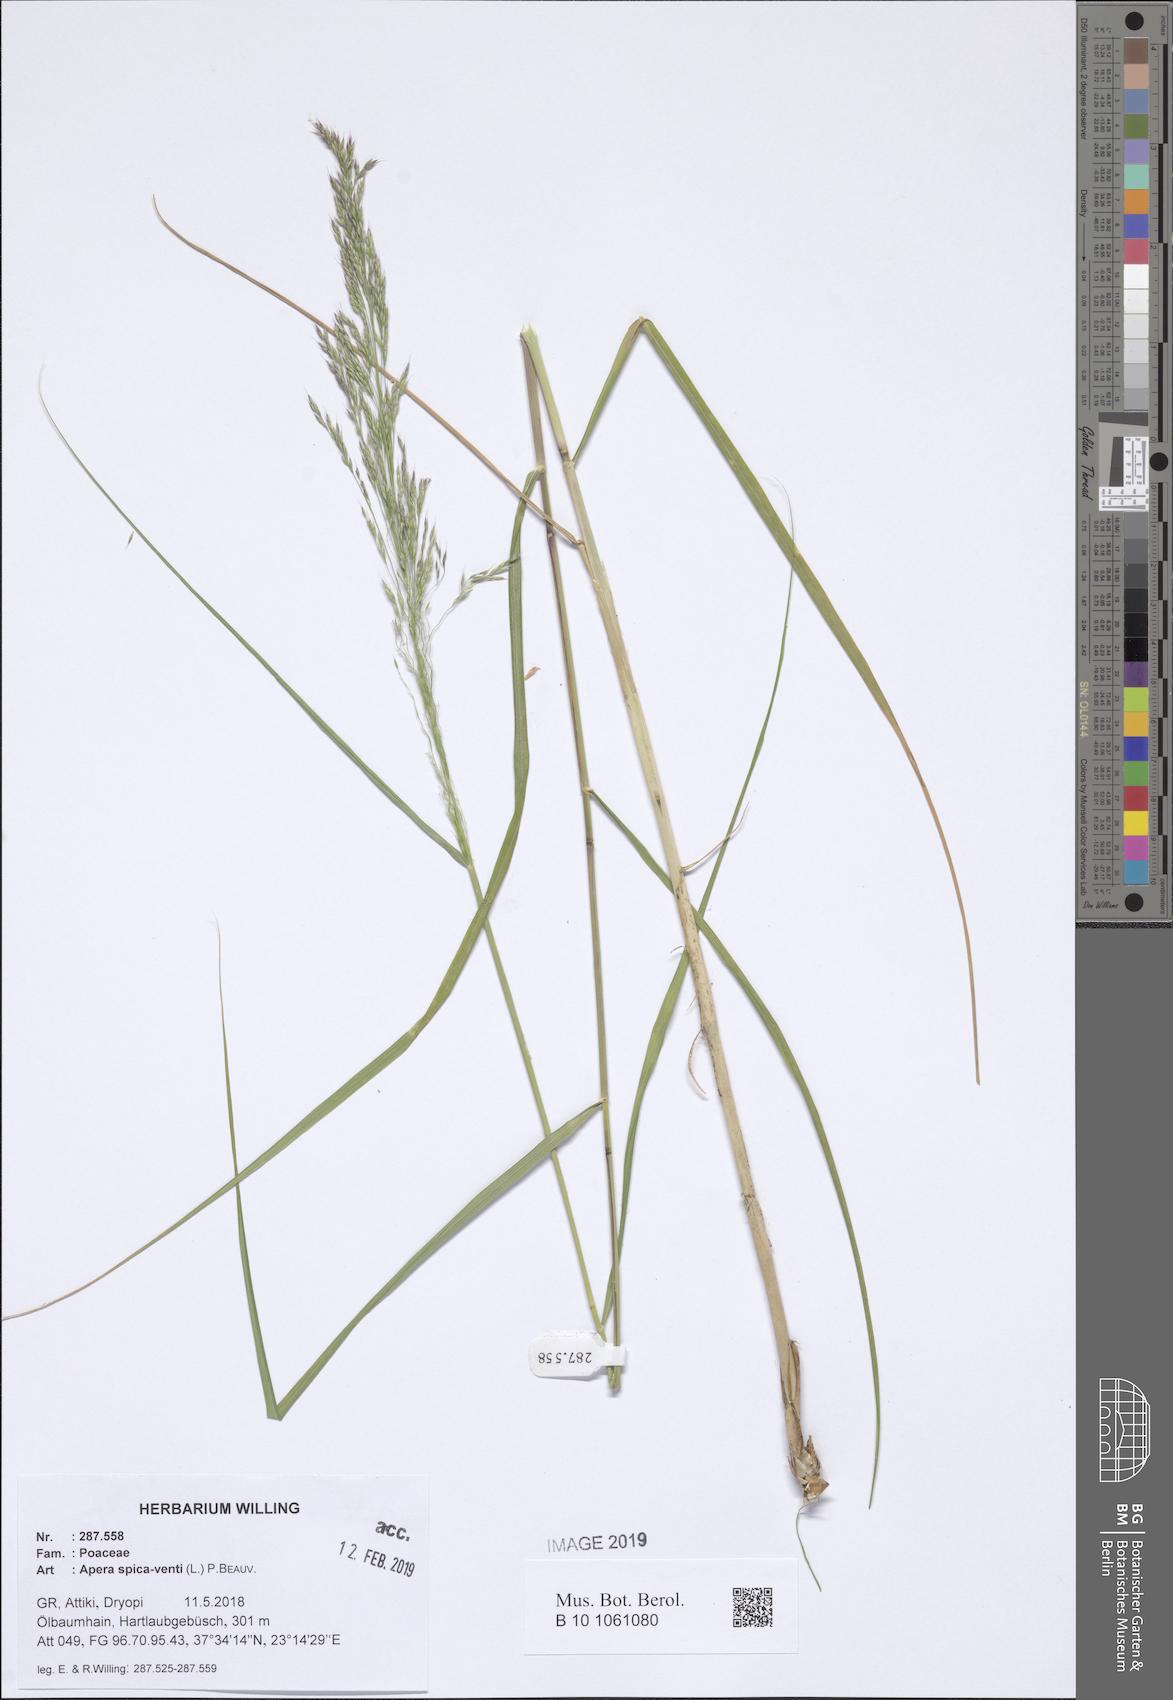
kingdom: Plantae
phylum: Tracheophyta
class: Liliopsida
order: Poales
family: Poaceae
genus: Apera
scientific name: Apera spica-venti
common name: Loose silky-bent
